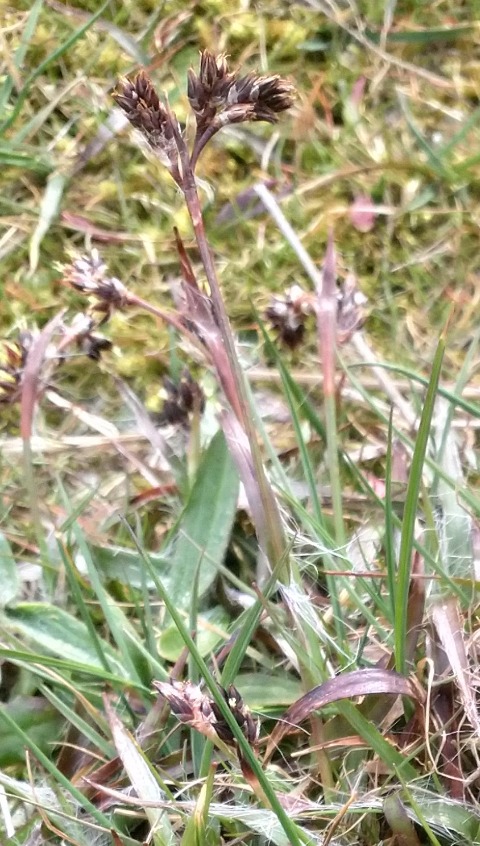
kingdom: Plantae
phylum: Tracheophyta
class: Liliopsida
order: Poales
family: Juncaceae
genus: Luzula
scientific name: Luzula campestris
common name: Mark-frytle
